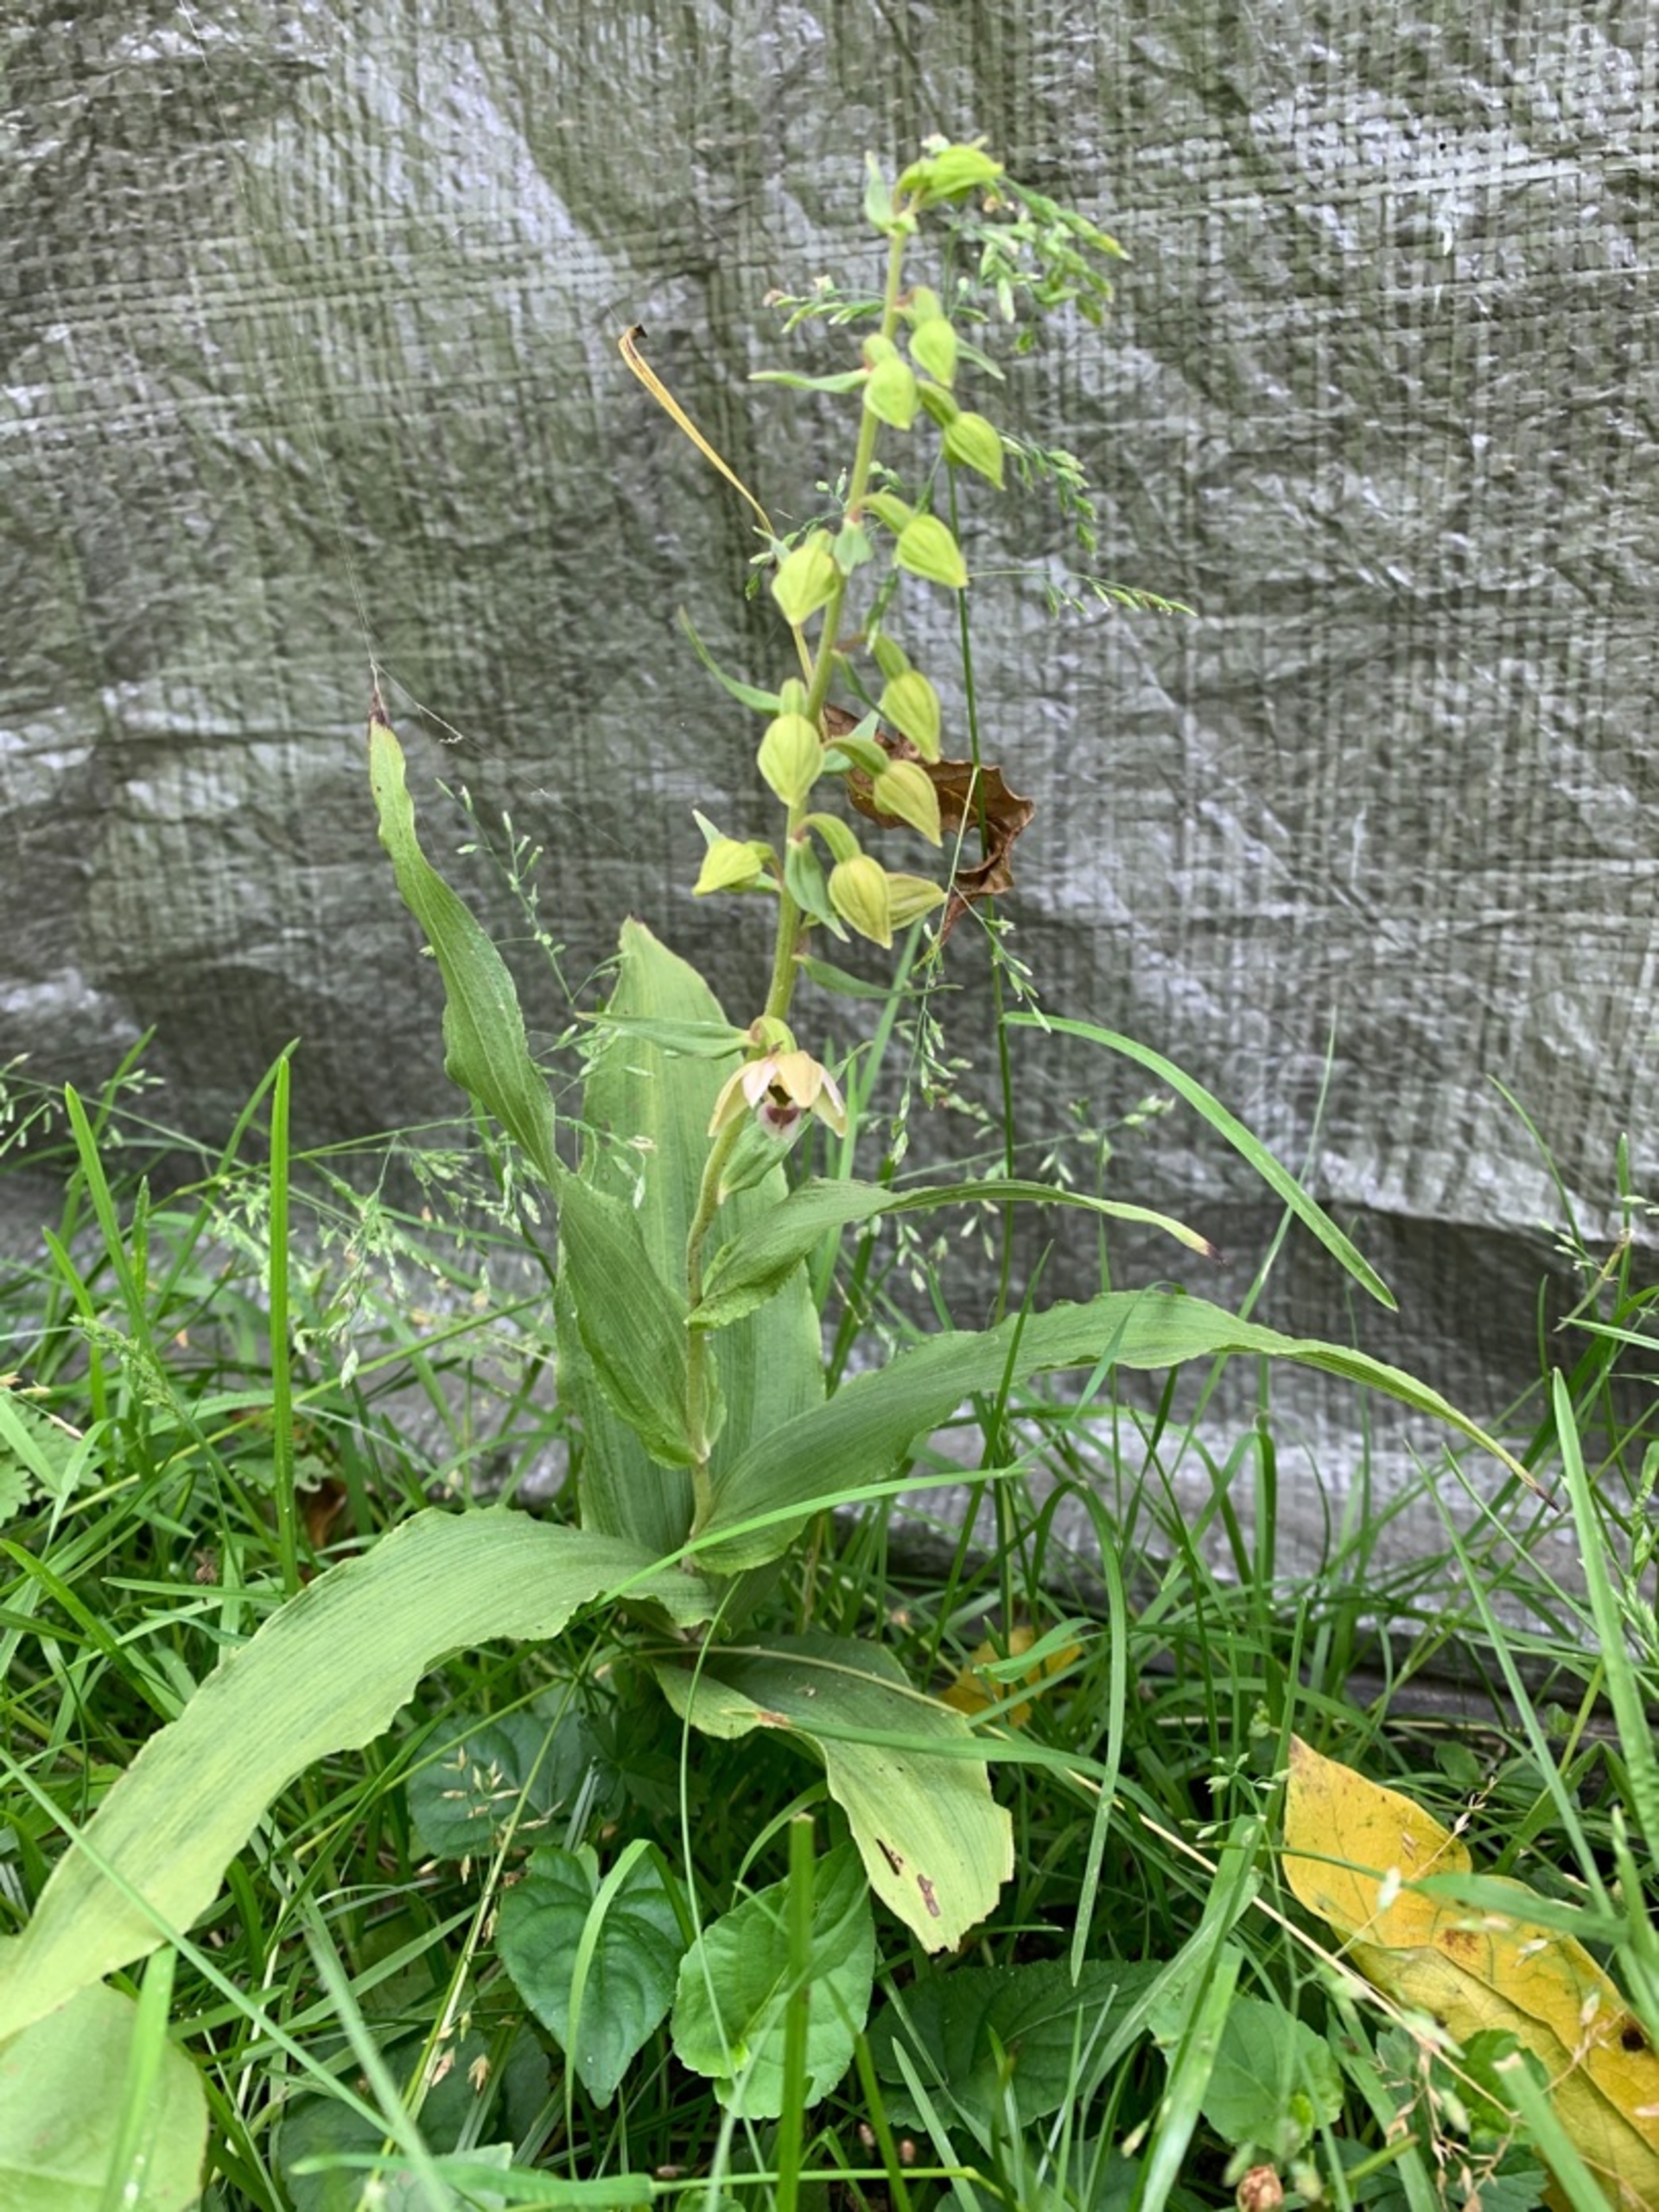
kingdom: Plantae
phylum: Tracheophyta
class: Liliopsida
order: Asparagales
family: Orchidaceae
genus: Epipactis
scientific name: Epipactis helleborine
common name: Skov-hullæbe
